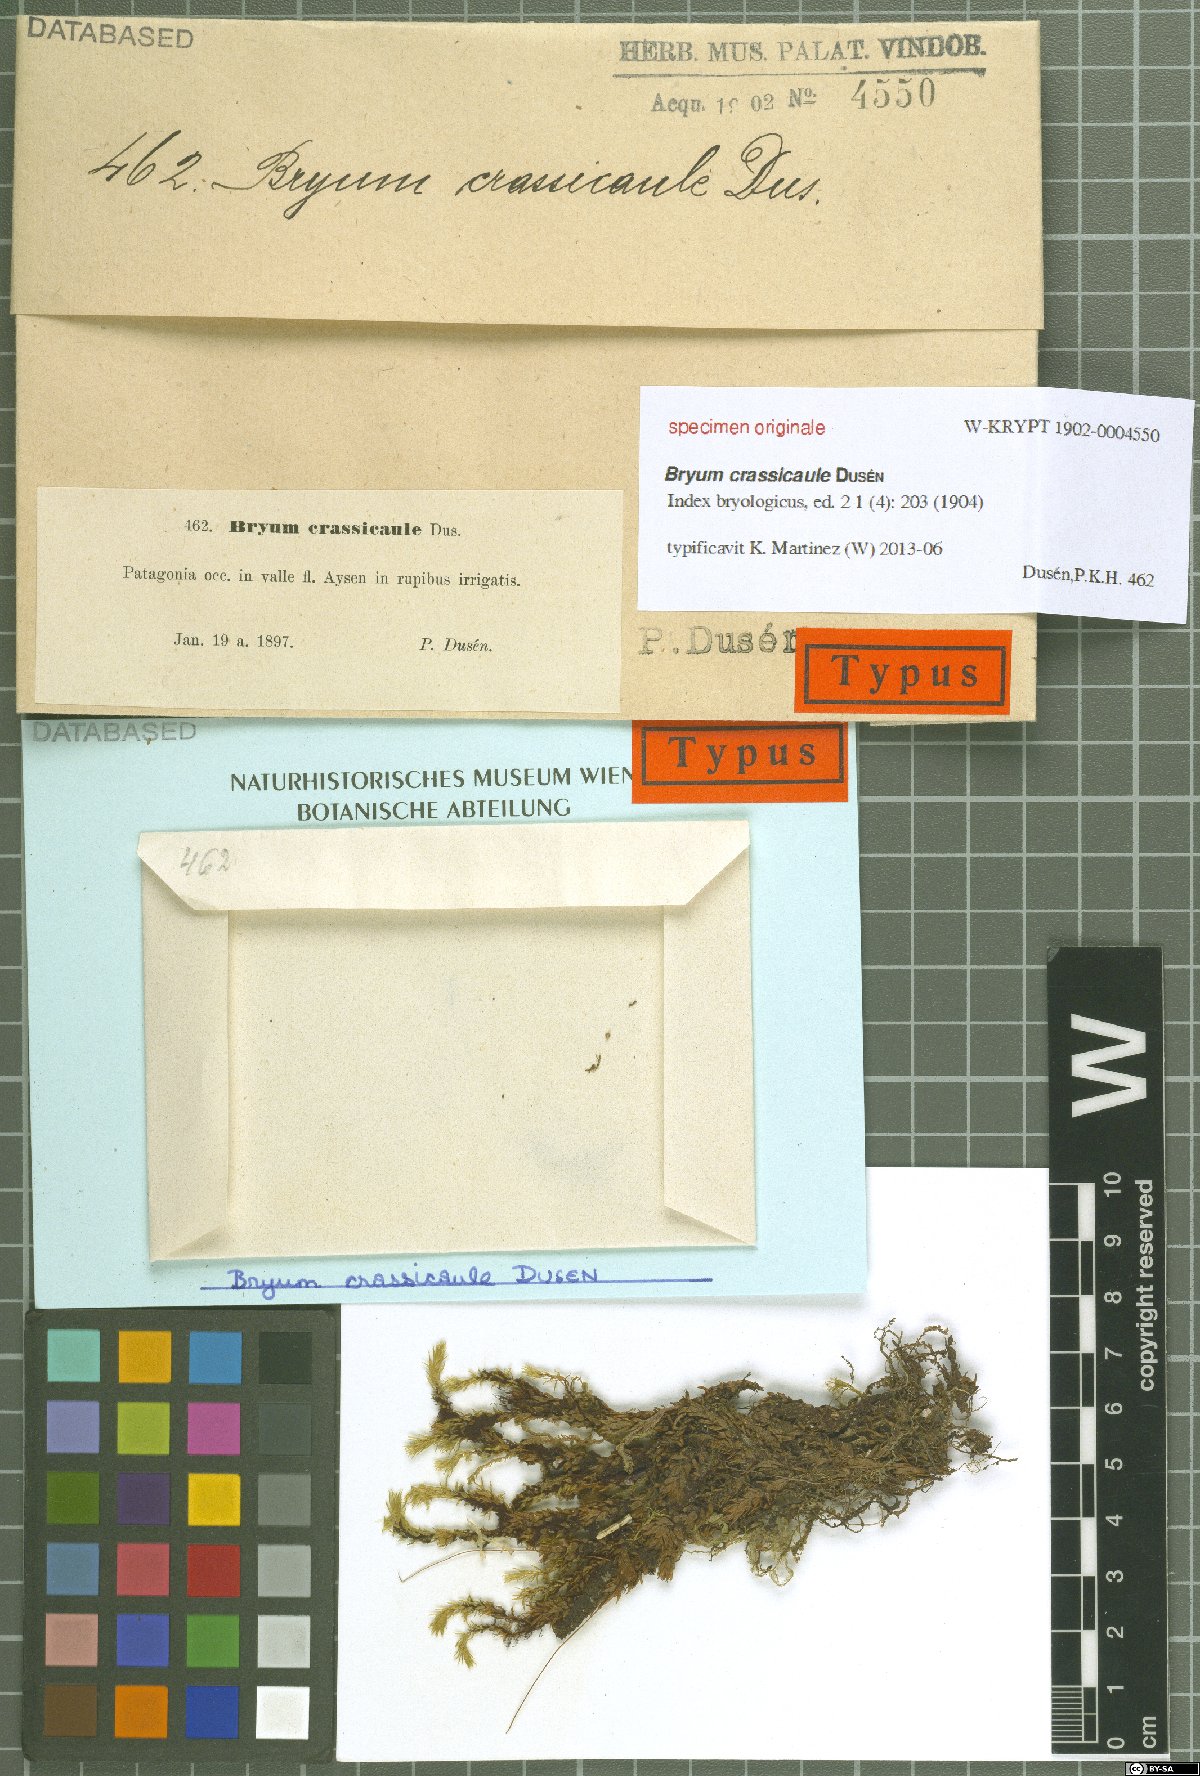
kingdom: Plantae
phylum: Bryophyta
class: Bryopsida
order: Bryales
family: Bryaceae
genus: Bryum
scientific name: Bryum
